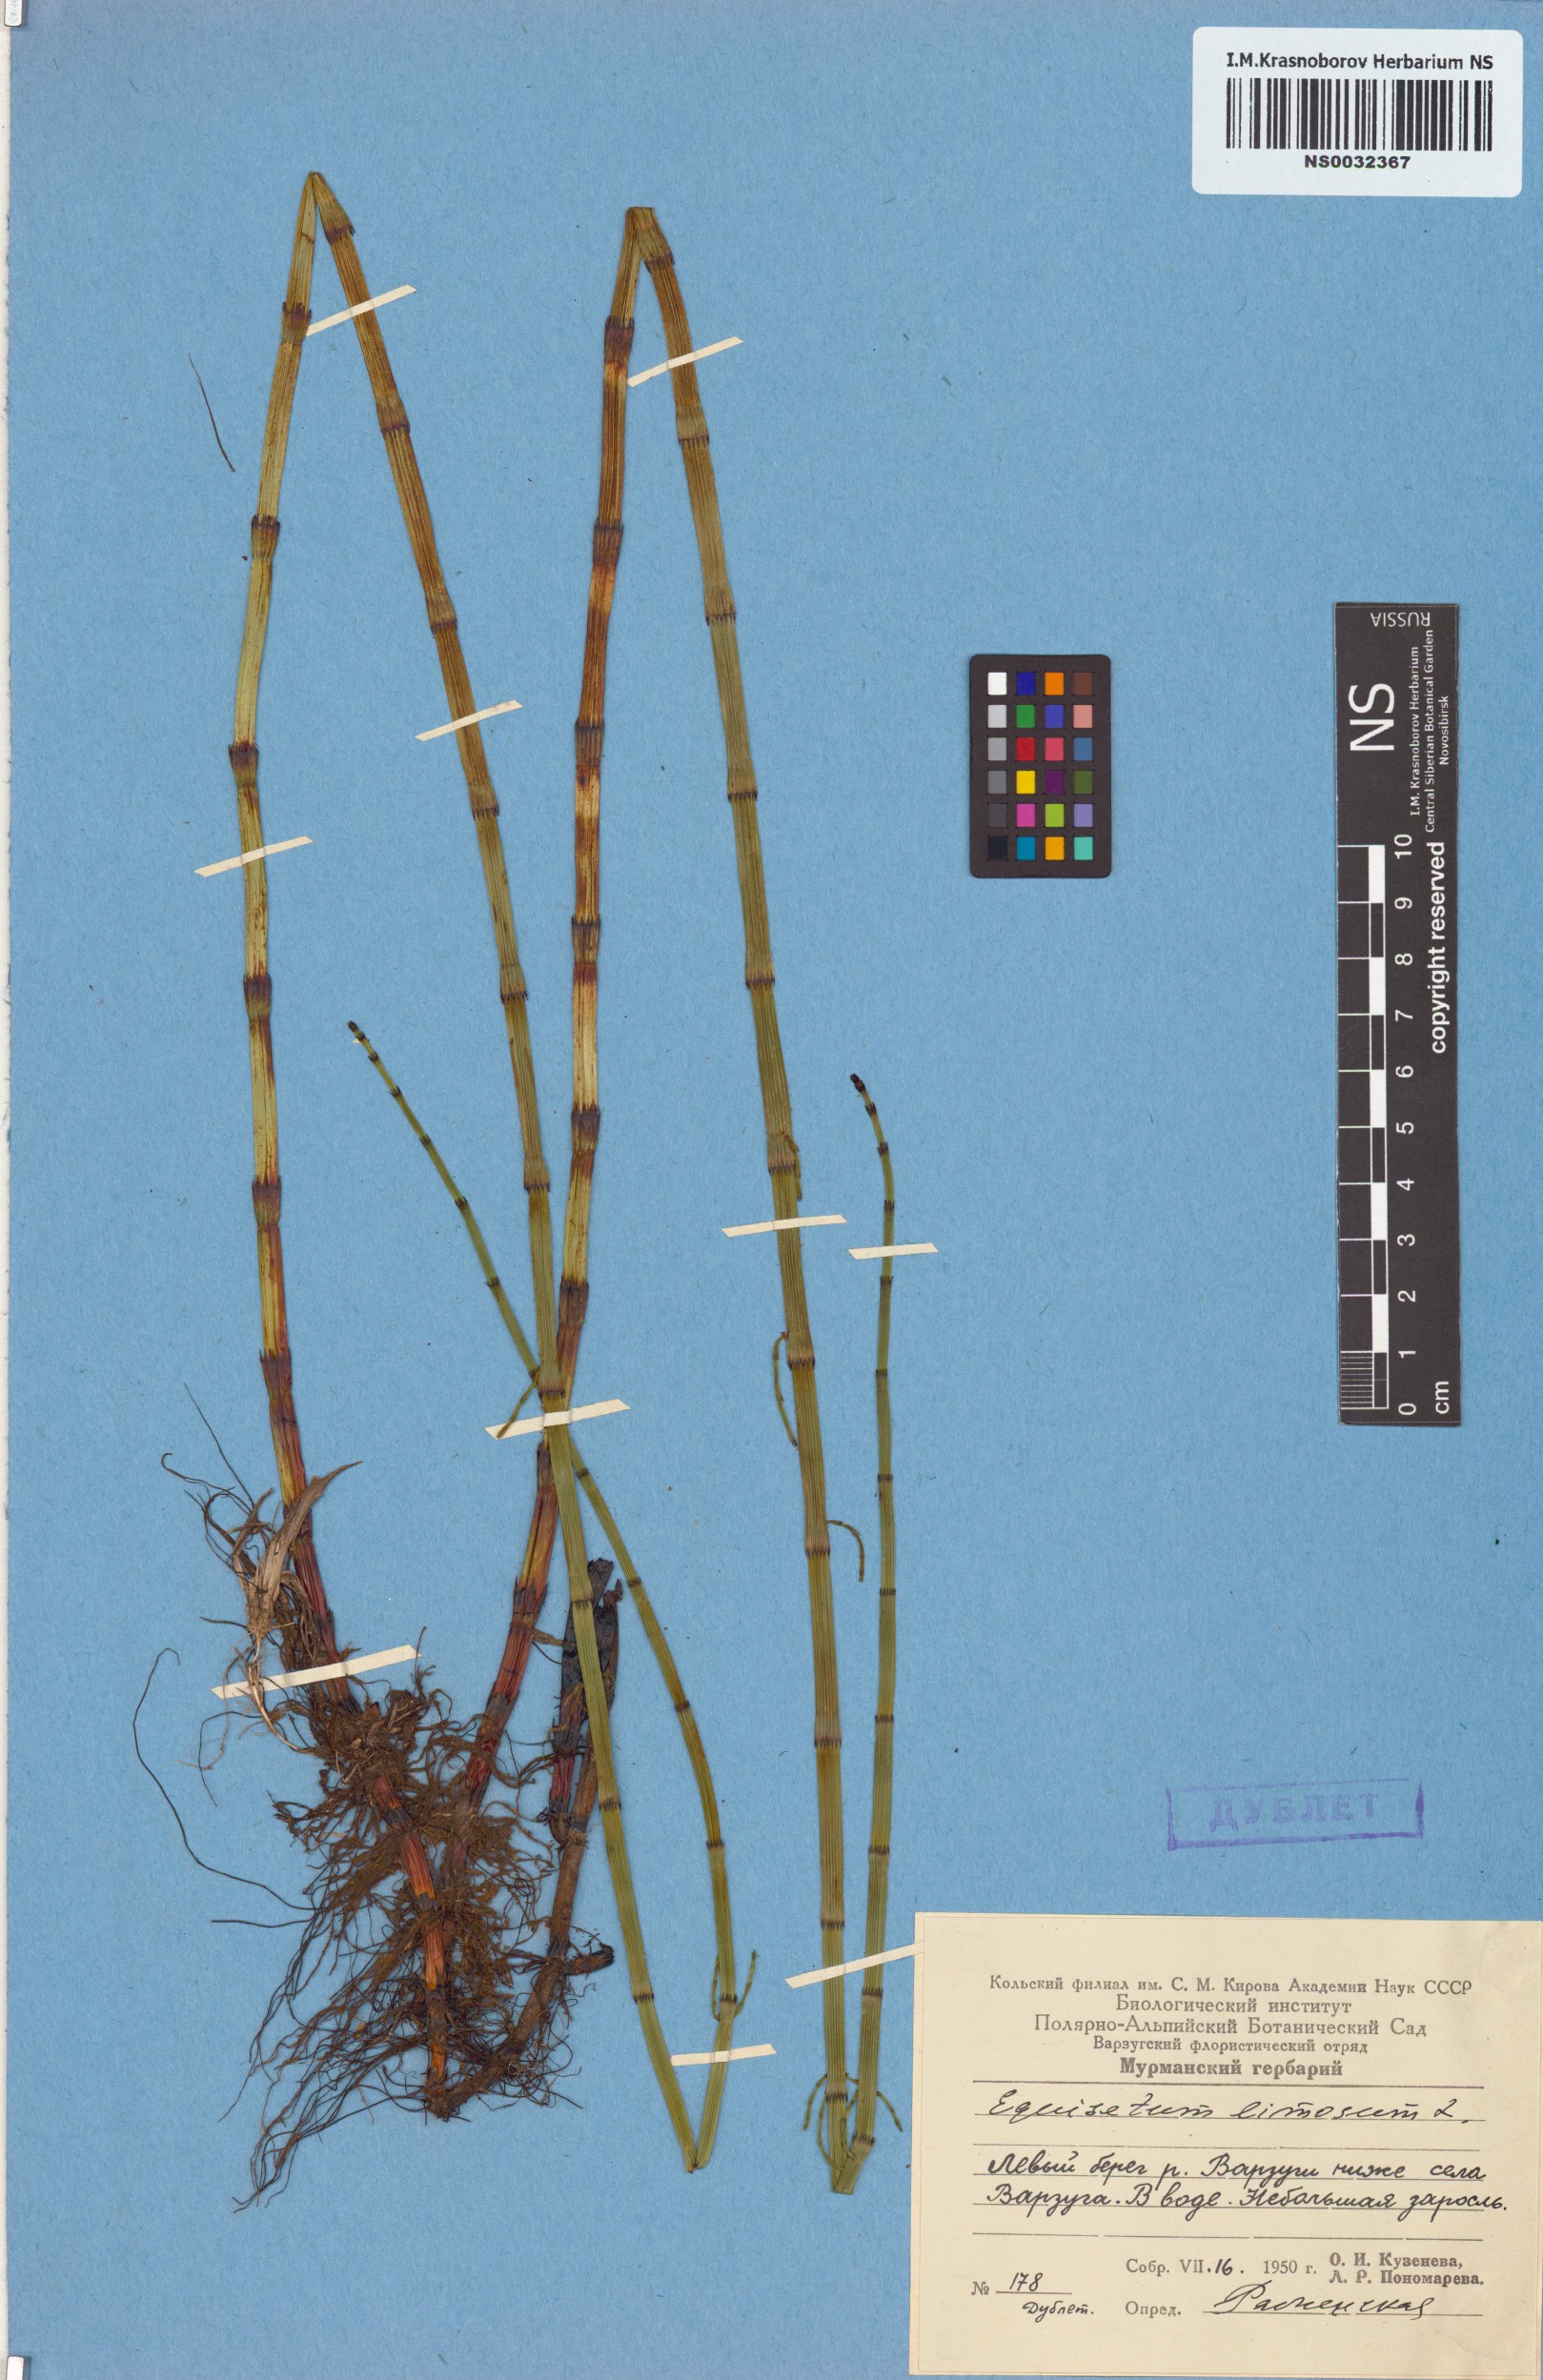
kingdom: Plantae
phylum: Tracheophyta
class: Polypodiopsida
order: Equisetales
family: Equisetaceae
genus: Equisetum
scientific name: Equisetum fluviatile
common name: Water horsetail
